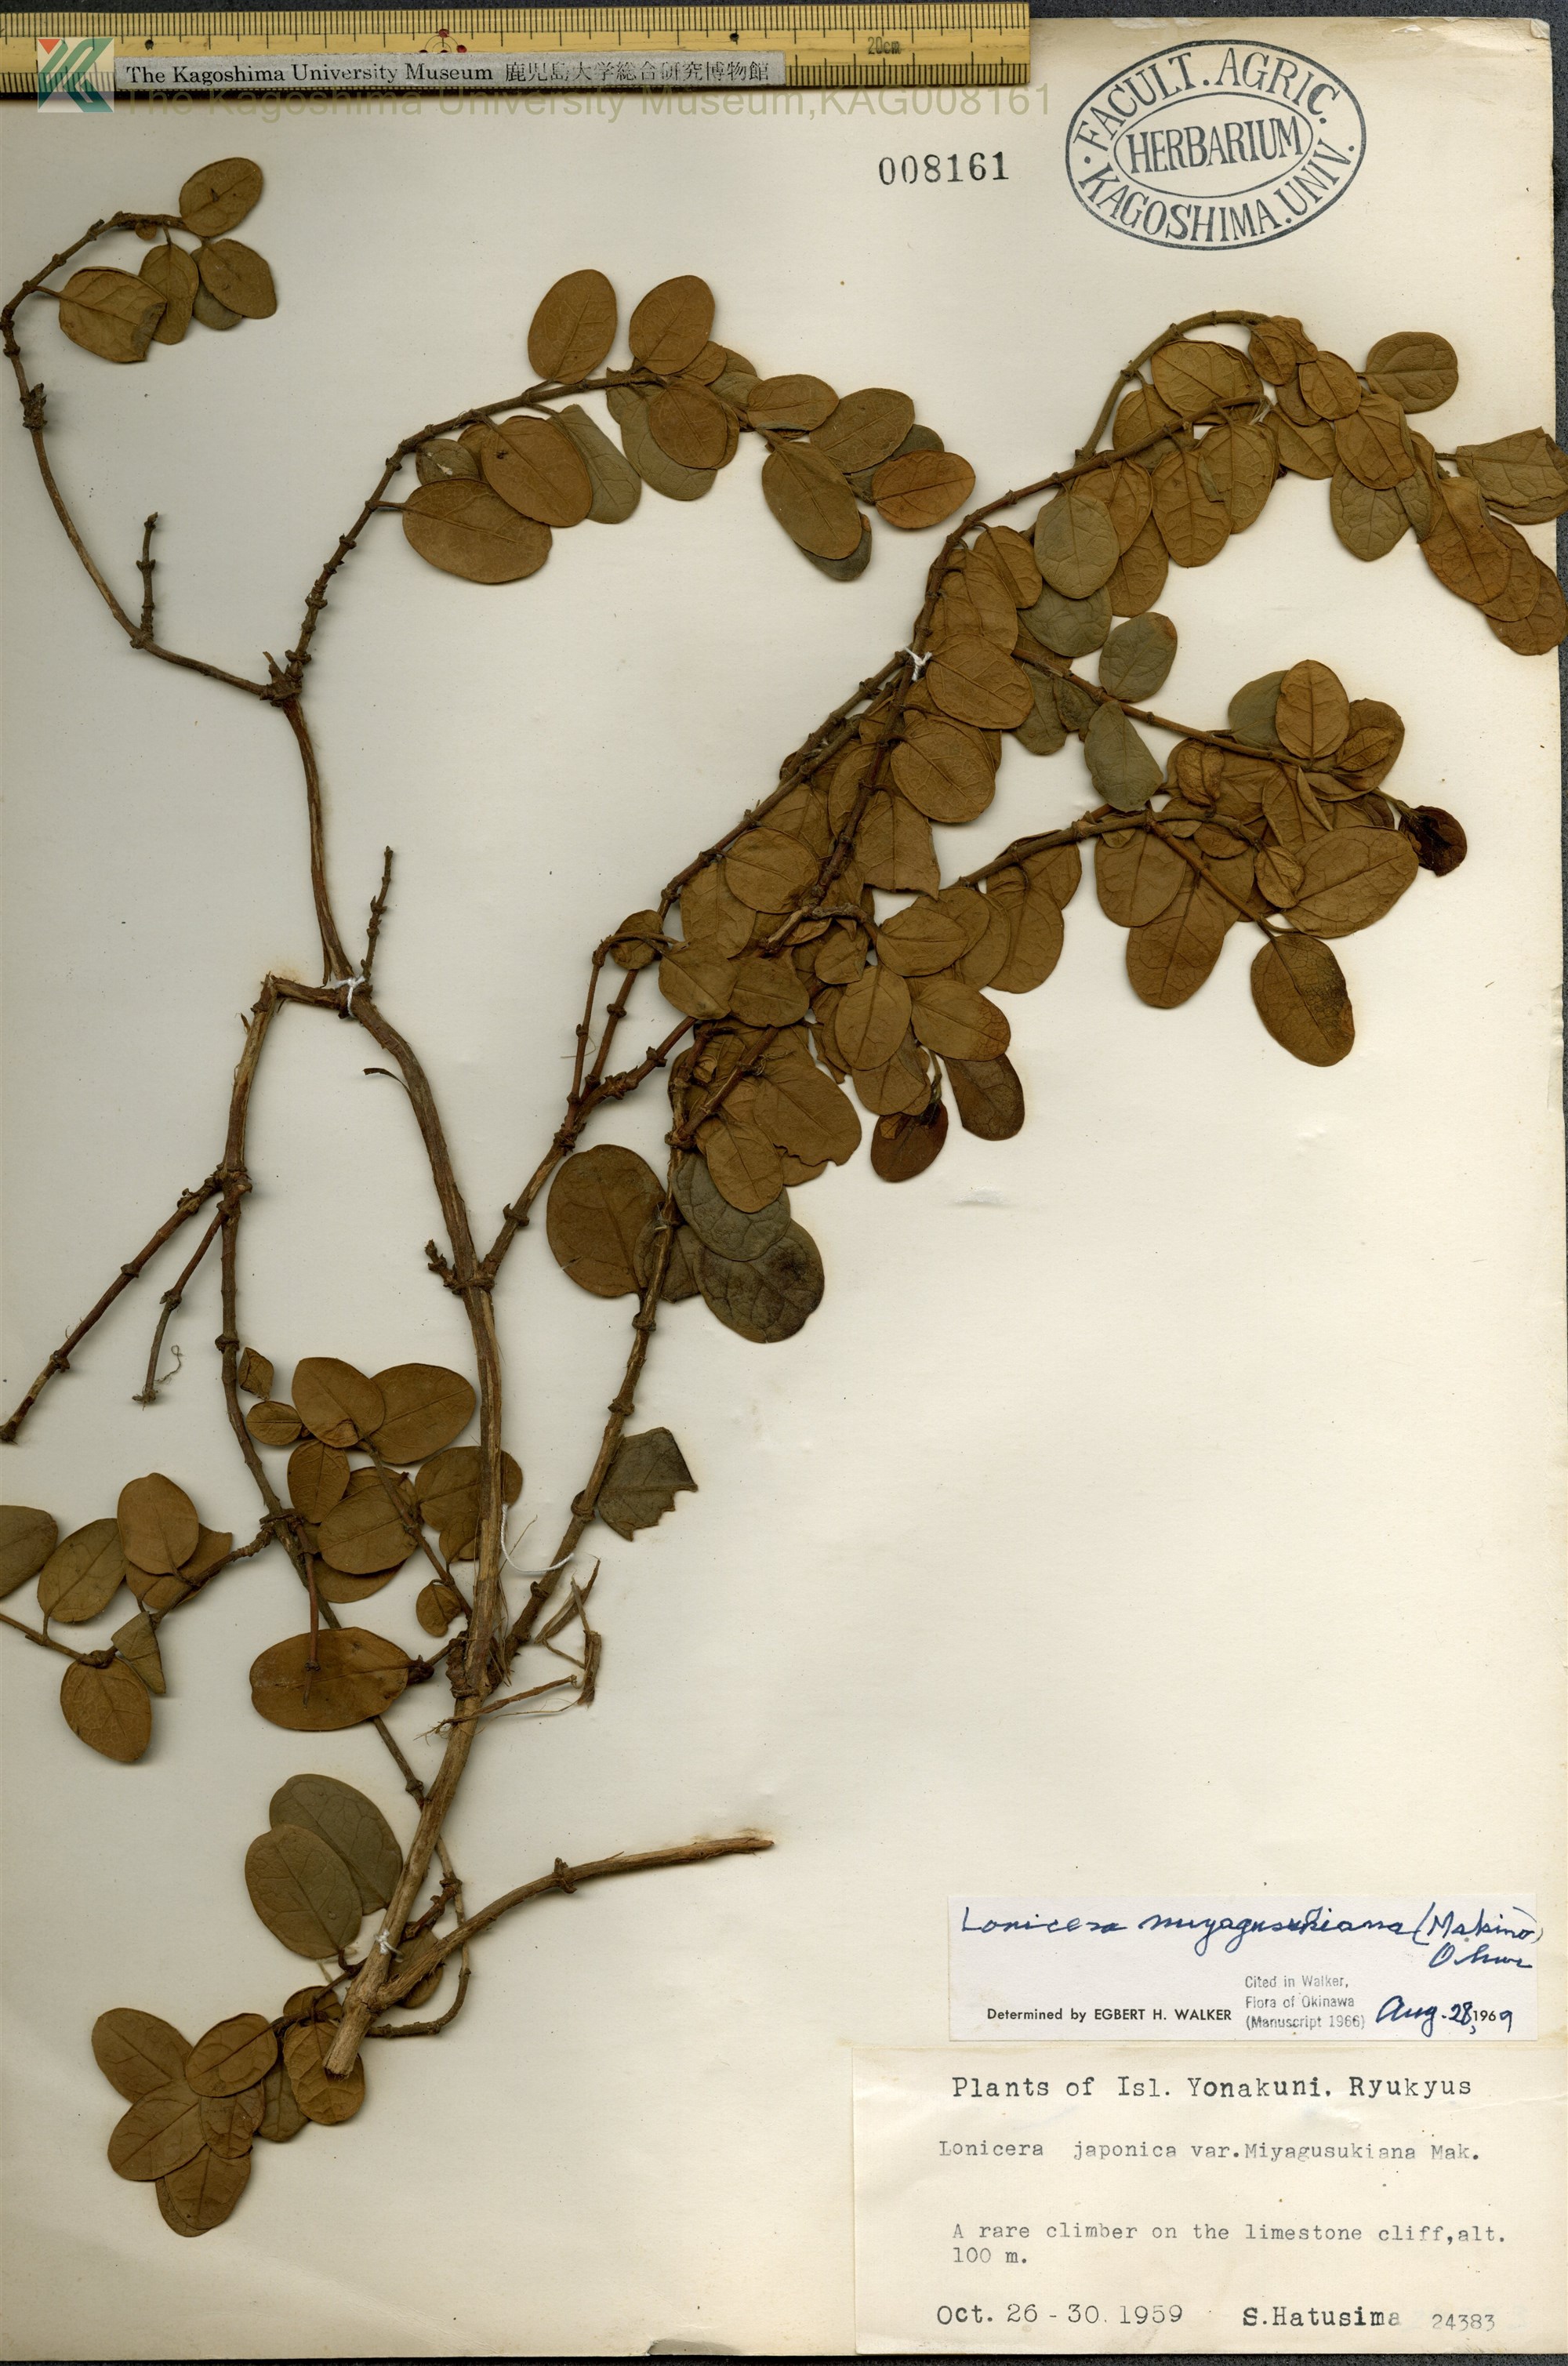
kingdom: Plantae
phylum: Tracheophyta
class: Magnoliopsida
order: Dipsacales
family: Caprifoliaceae
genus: Lonicera
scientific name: Lonicera japonica
